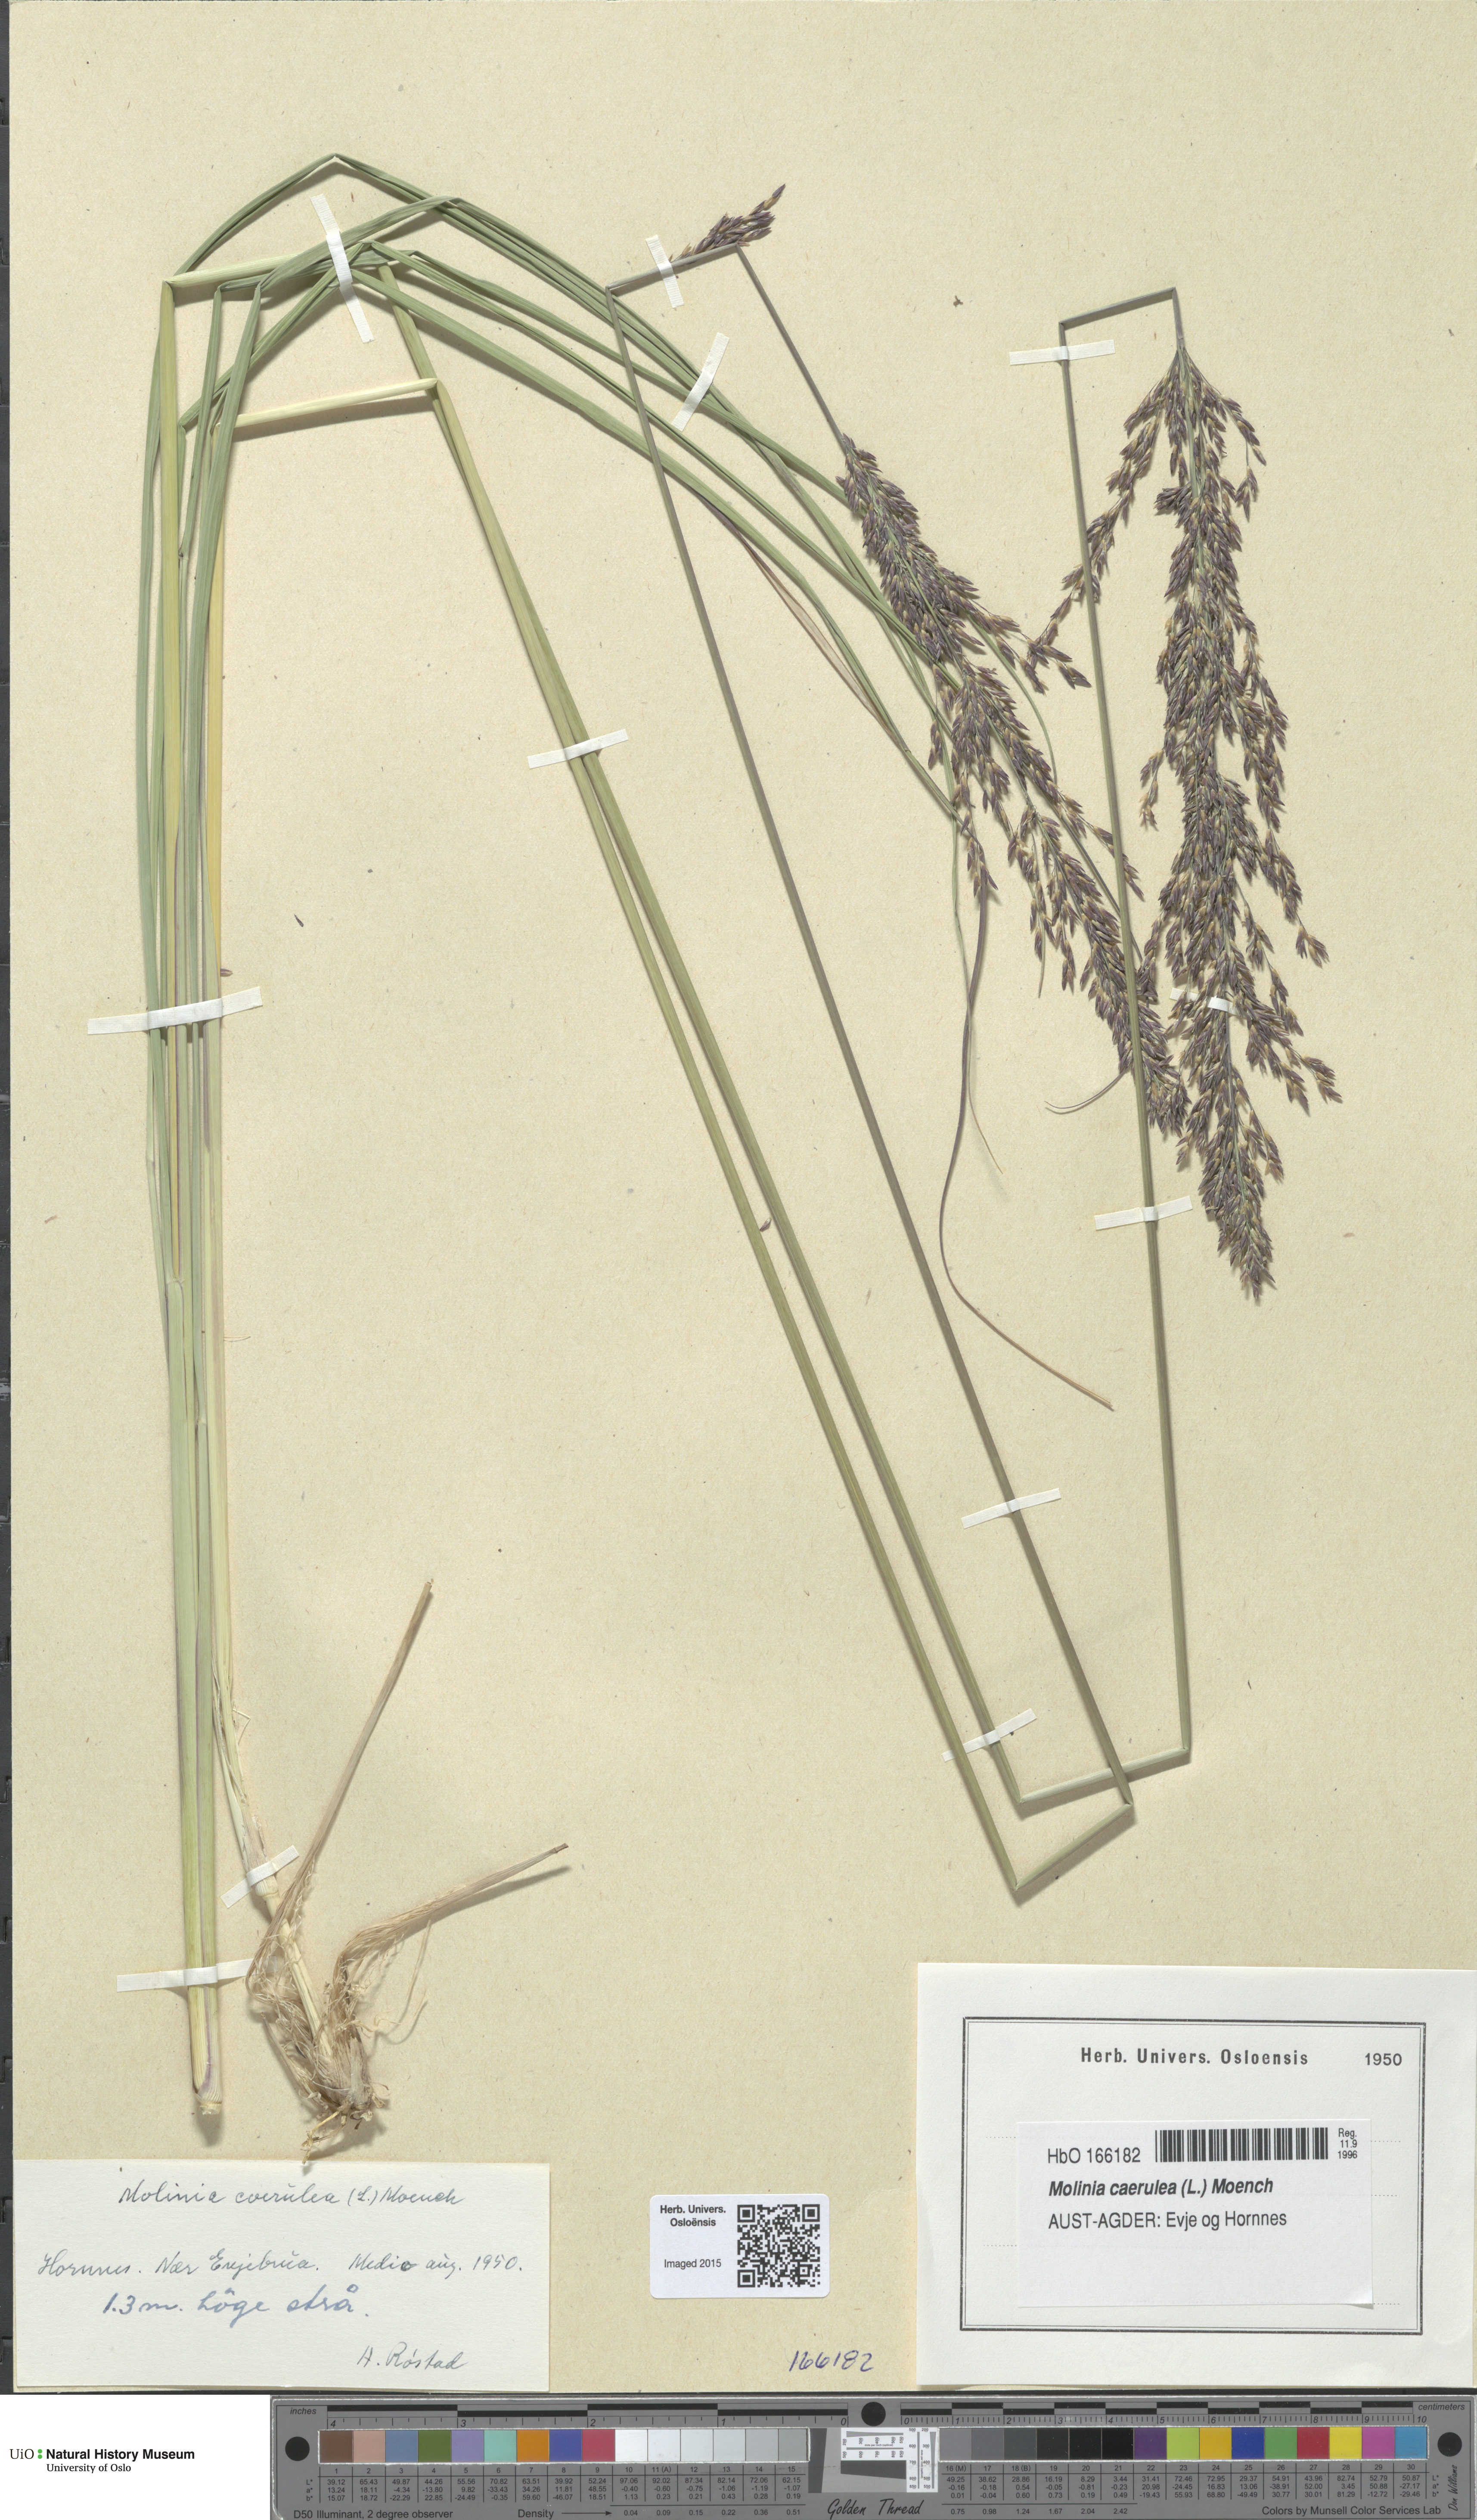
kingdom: Plantae
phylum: Tracheophyta
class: Liliopsida
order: Poales
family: Poaceae
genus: Molinia
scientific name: Molinia caerulea
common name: Purple moor-grass
